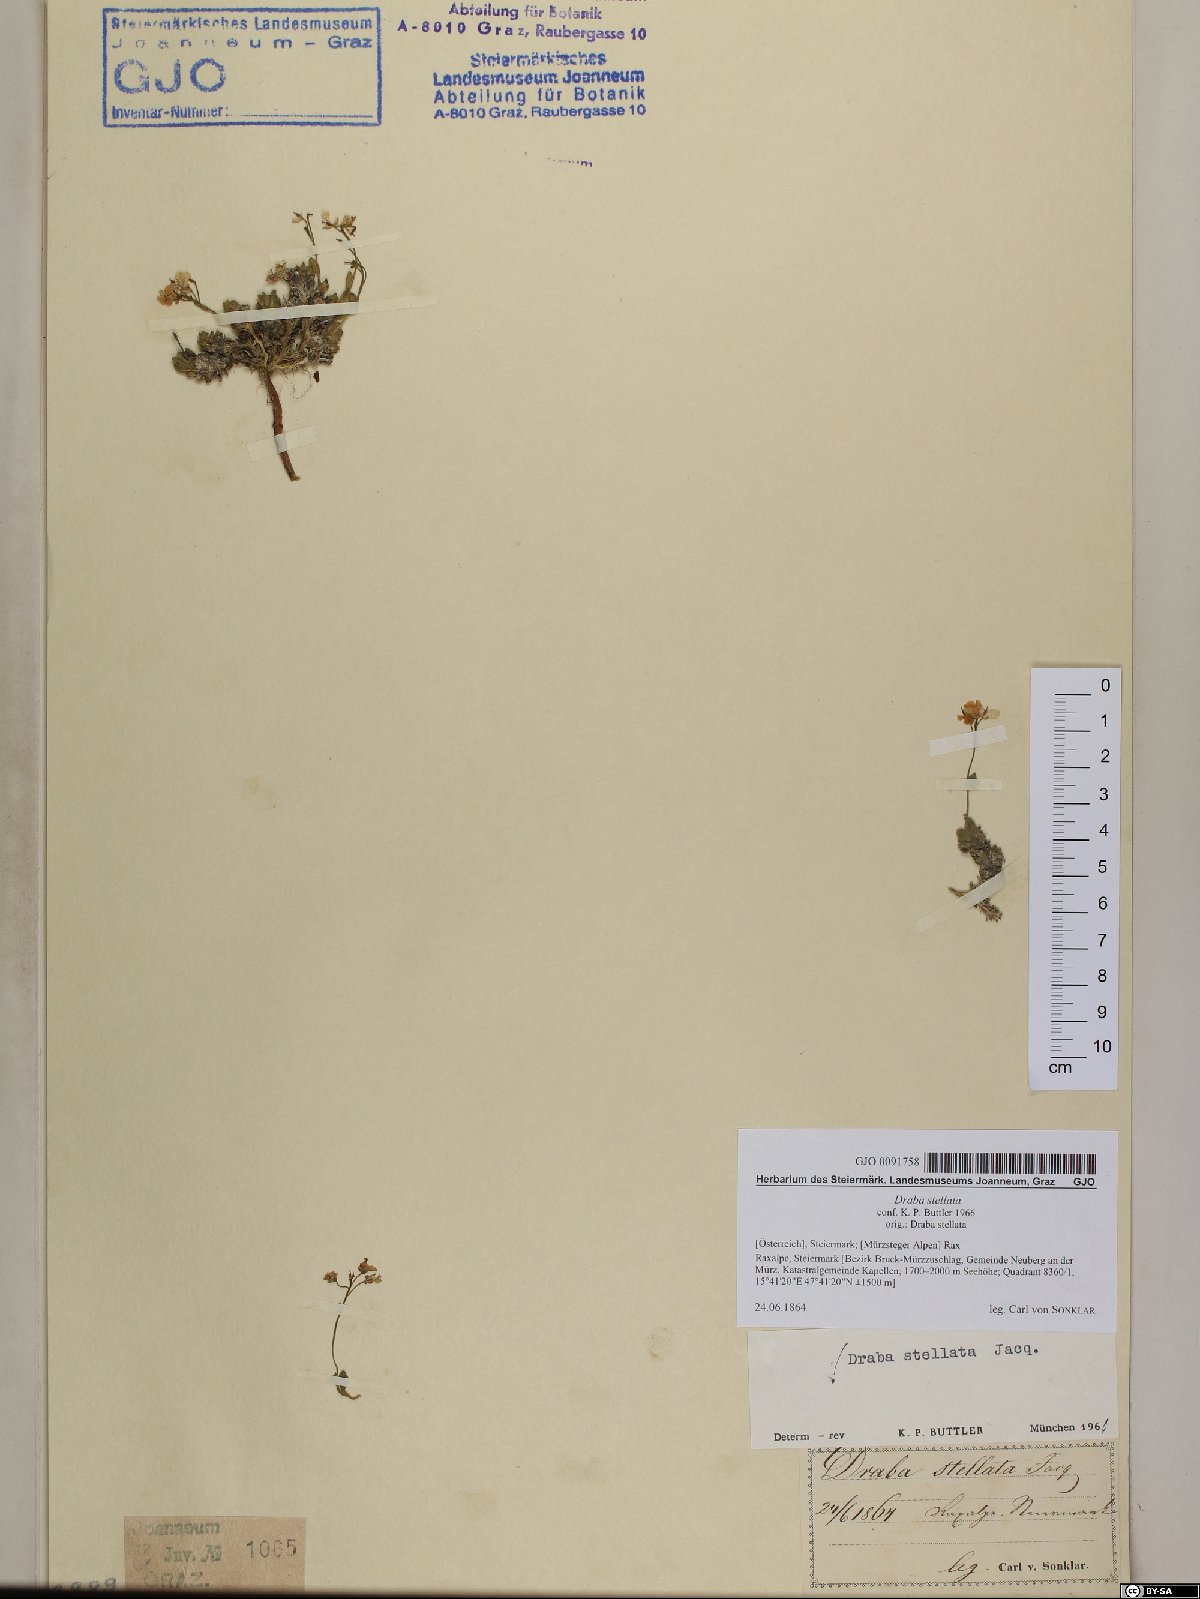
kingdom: Plantae
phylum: Tracheophyta
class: Magnoliopsida
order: Brassicales
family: Brassicaceae
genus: Draba
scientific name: Draba stellata
